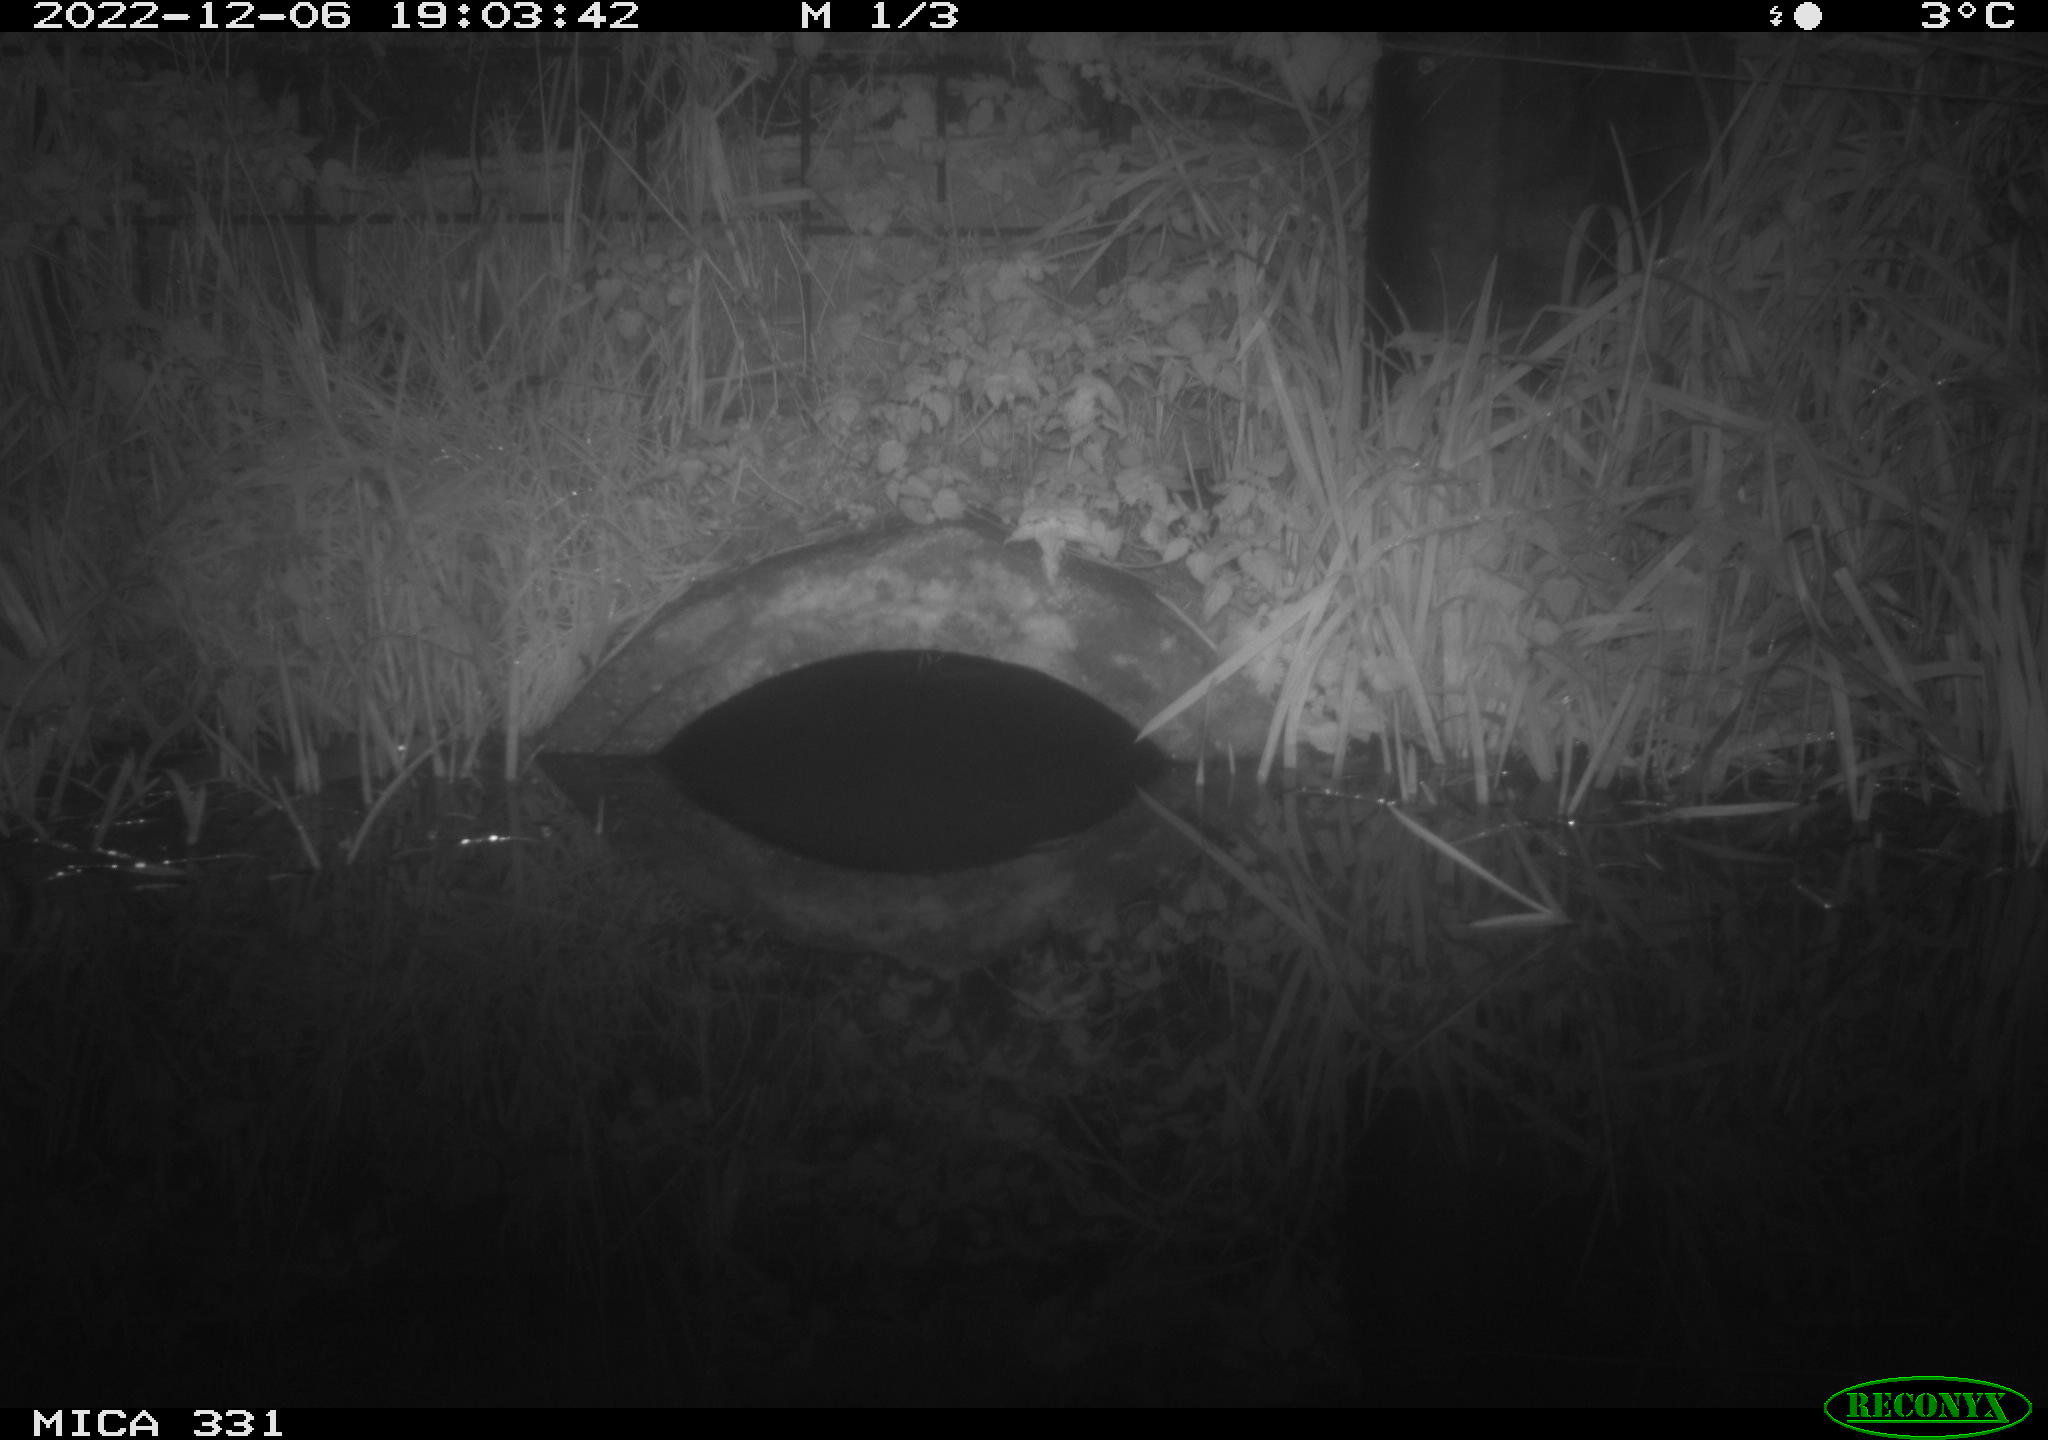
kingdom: Animalia
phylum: Chordata
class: Mammalia
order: Rodentia
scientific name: Rodentia
